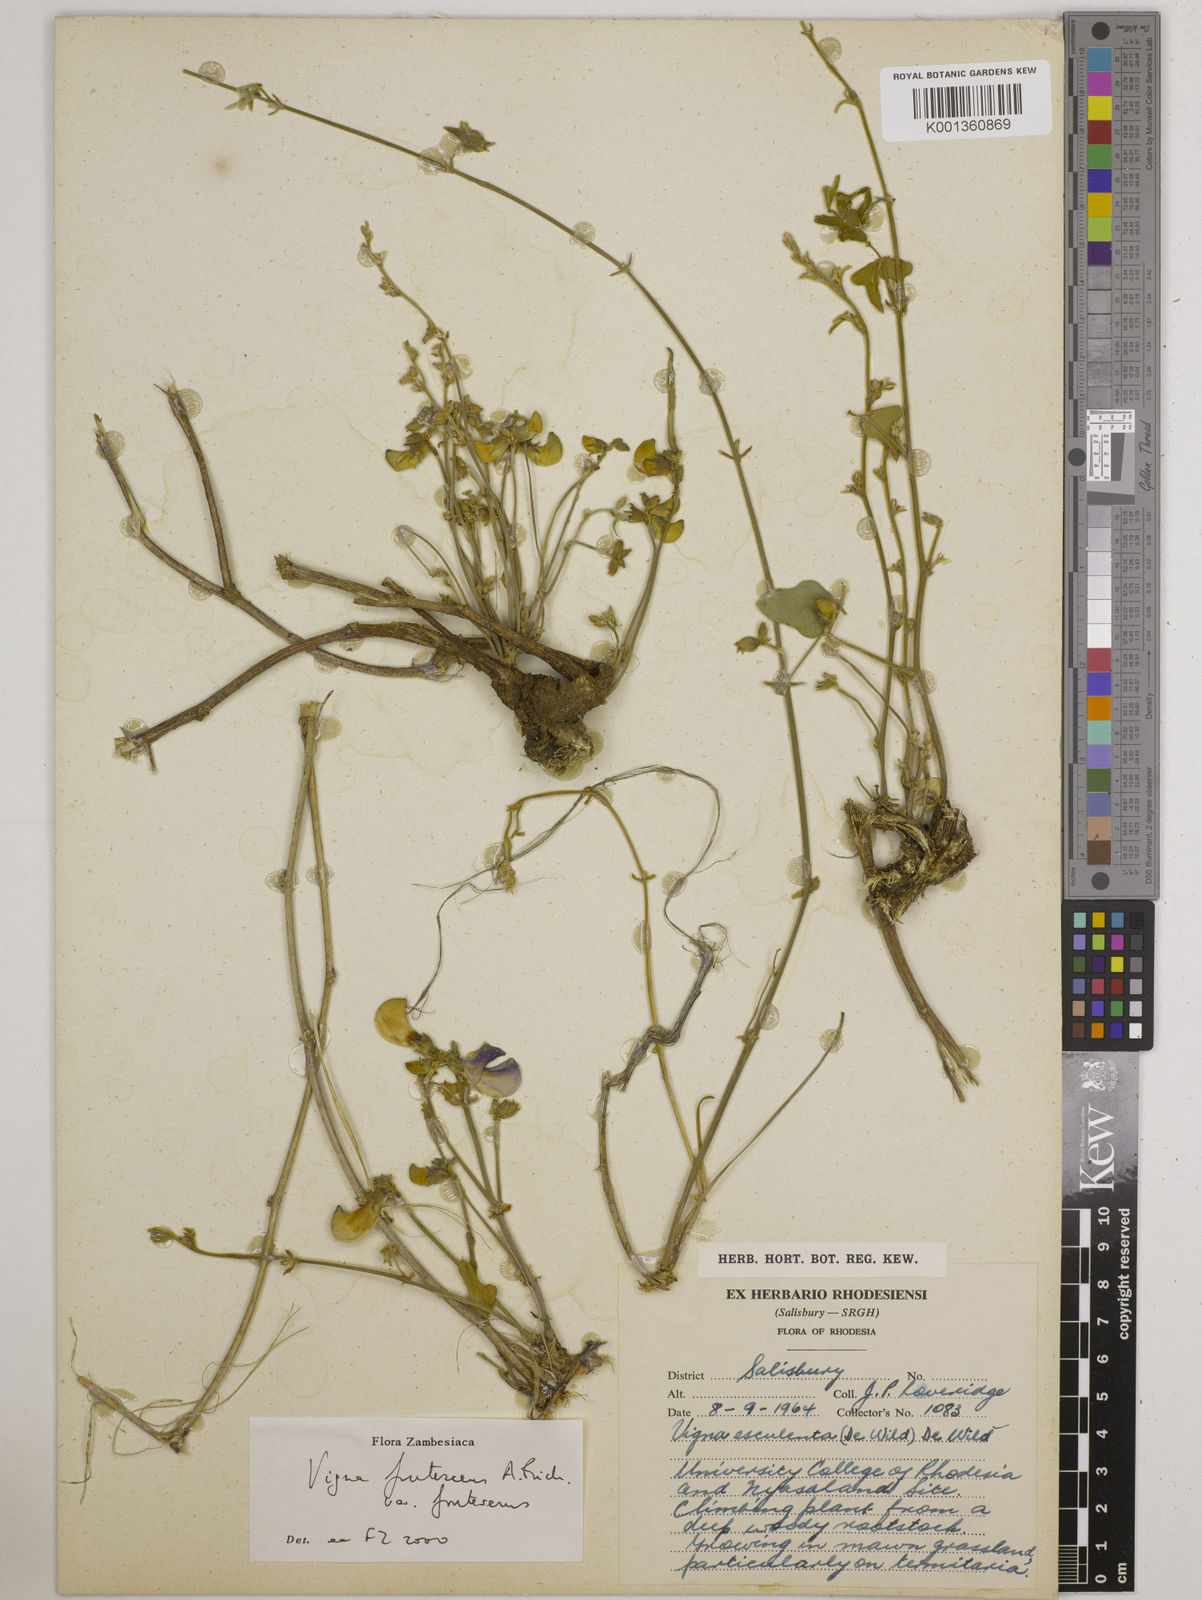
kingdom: Plantae
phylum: Tracheophyta
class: Magnoliopsida
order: Fabales
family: Fabaceae
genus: Vigna
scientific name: Vigna
